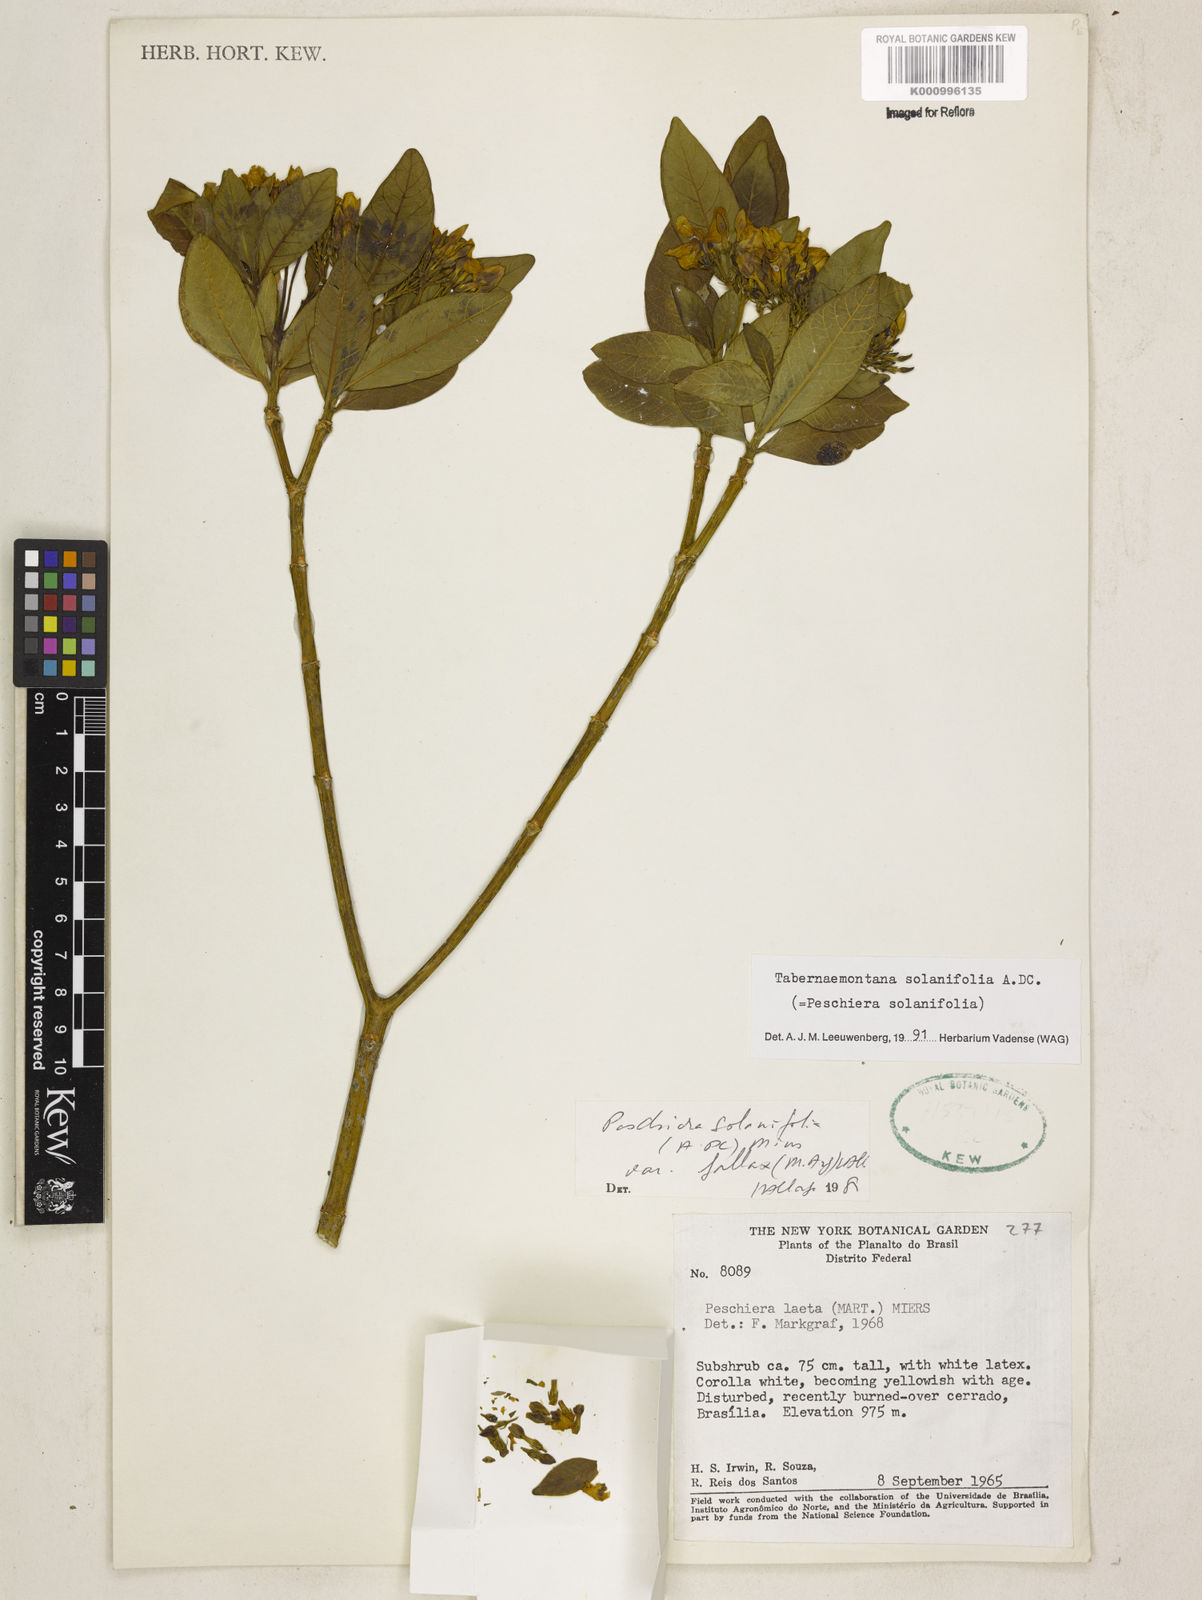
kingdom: Plantae
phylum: Tracheophyta
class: Magnoliopsida
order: Gentianales
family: Apocynaceae
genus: Tabernaemontana
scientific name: Tabernaemontana solanifolia
